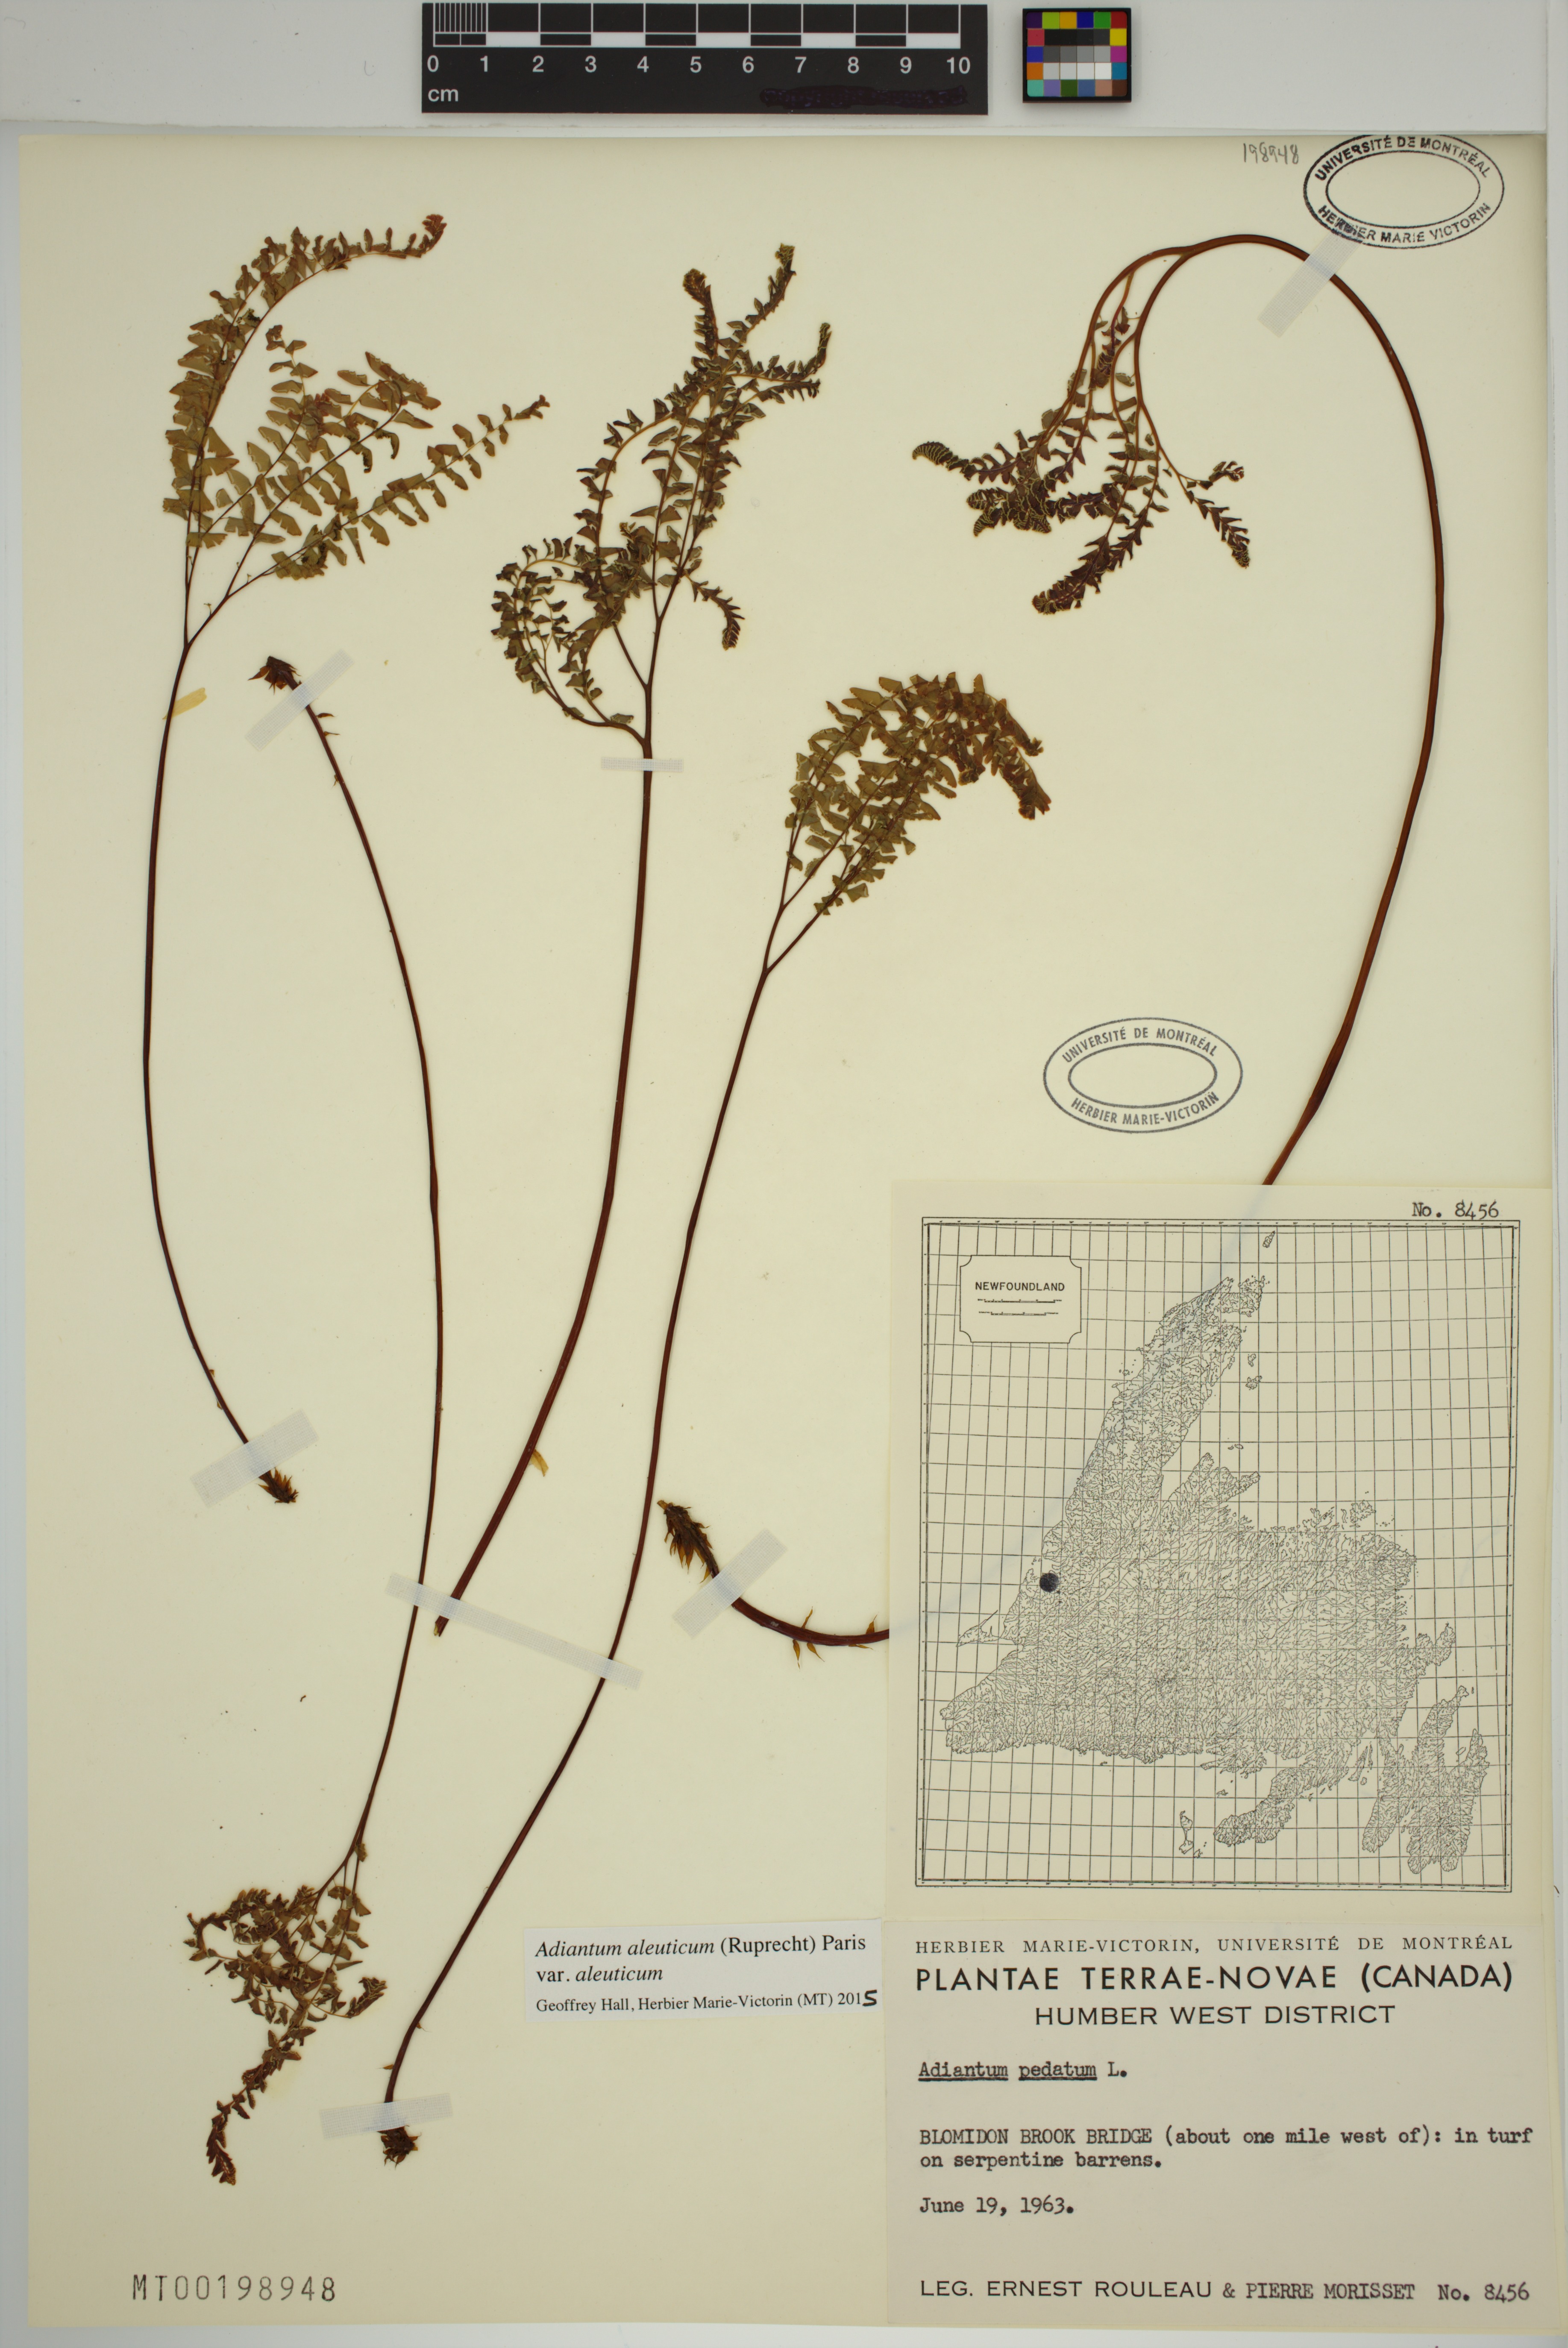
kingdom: Plantae
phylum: Tracheophyta
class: Polypodiopsida
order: Polypodiales
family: Pteridaceae
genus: Adiantum
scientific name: Adiantum aleuticum
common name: Aleutian maidenhair fern
